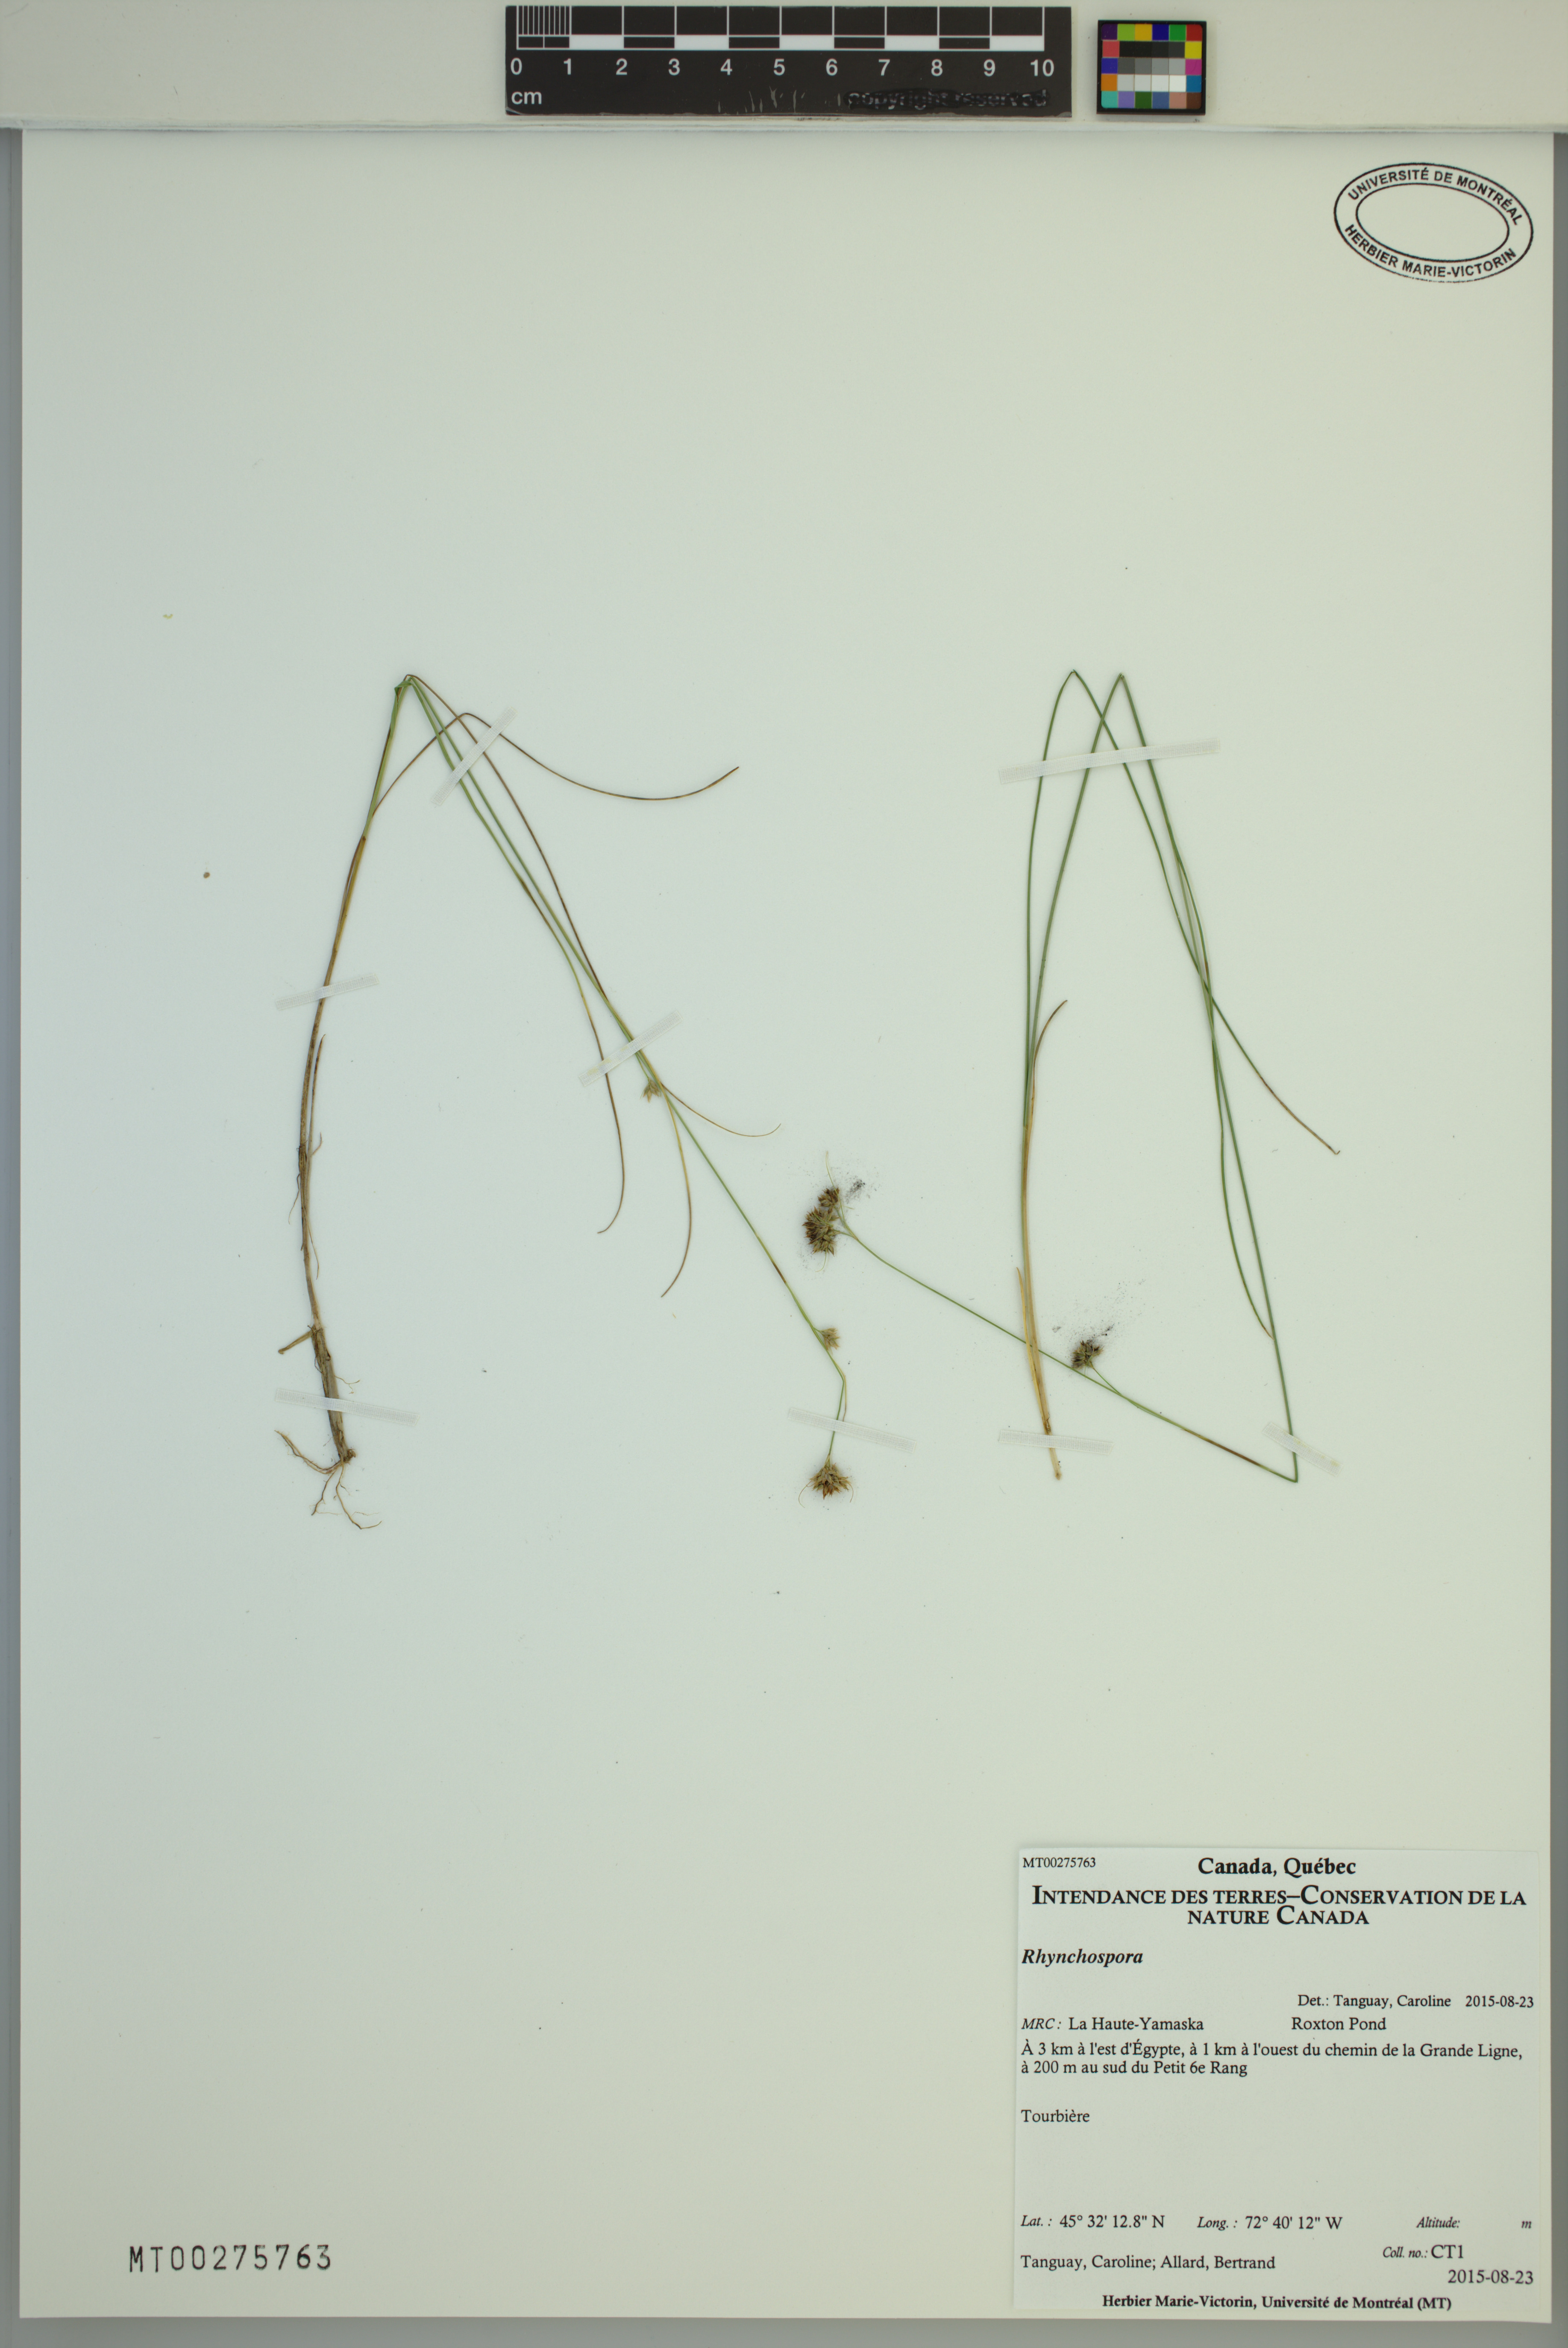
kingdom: Plantae
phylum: Tracheophyta
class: Liliopsida
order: Poales
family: Cyperaceae
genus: Rhynchospora
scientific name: Rhynchospora
